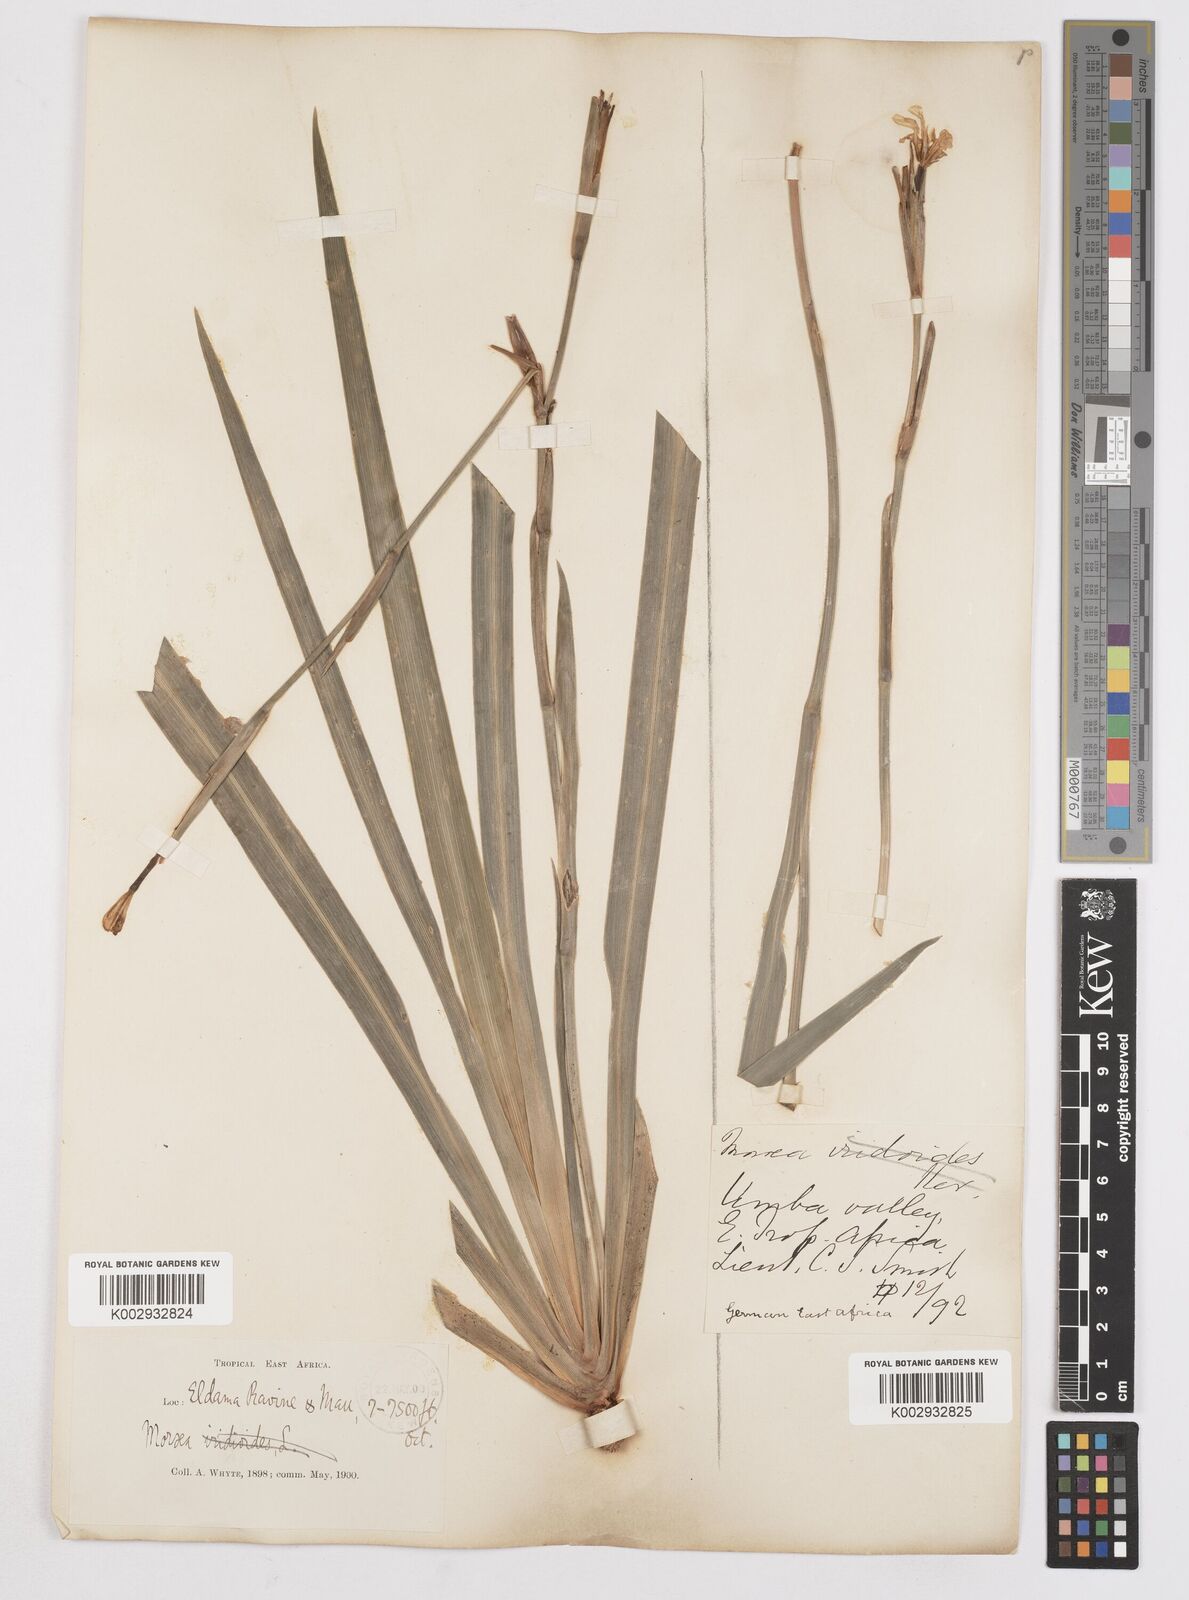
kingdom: Plantae
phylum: Tracheophyta
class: Liliopsida
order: Asparagales
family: Iridaceae
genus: Dietes
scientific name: Dietes iridioides
